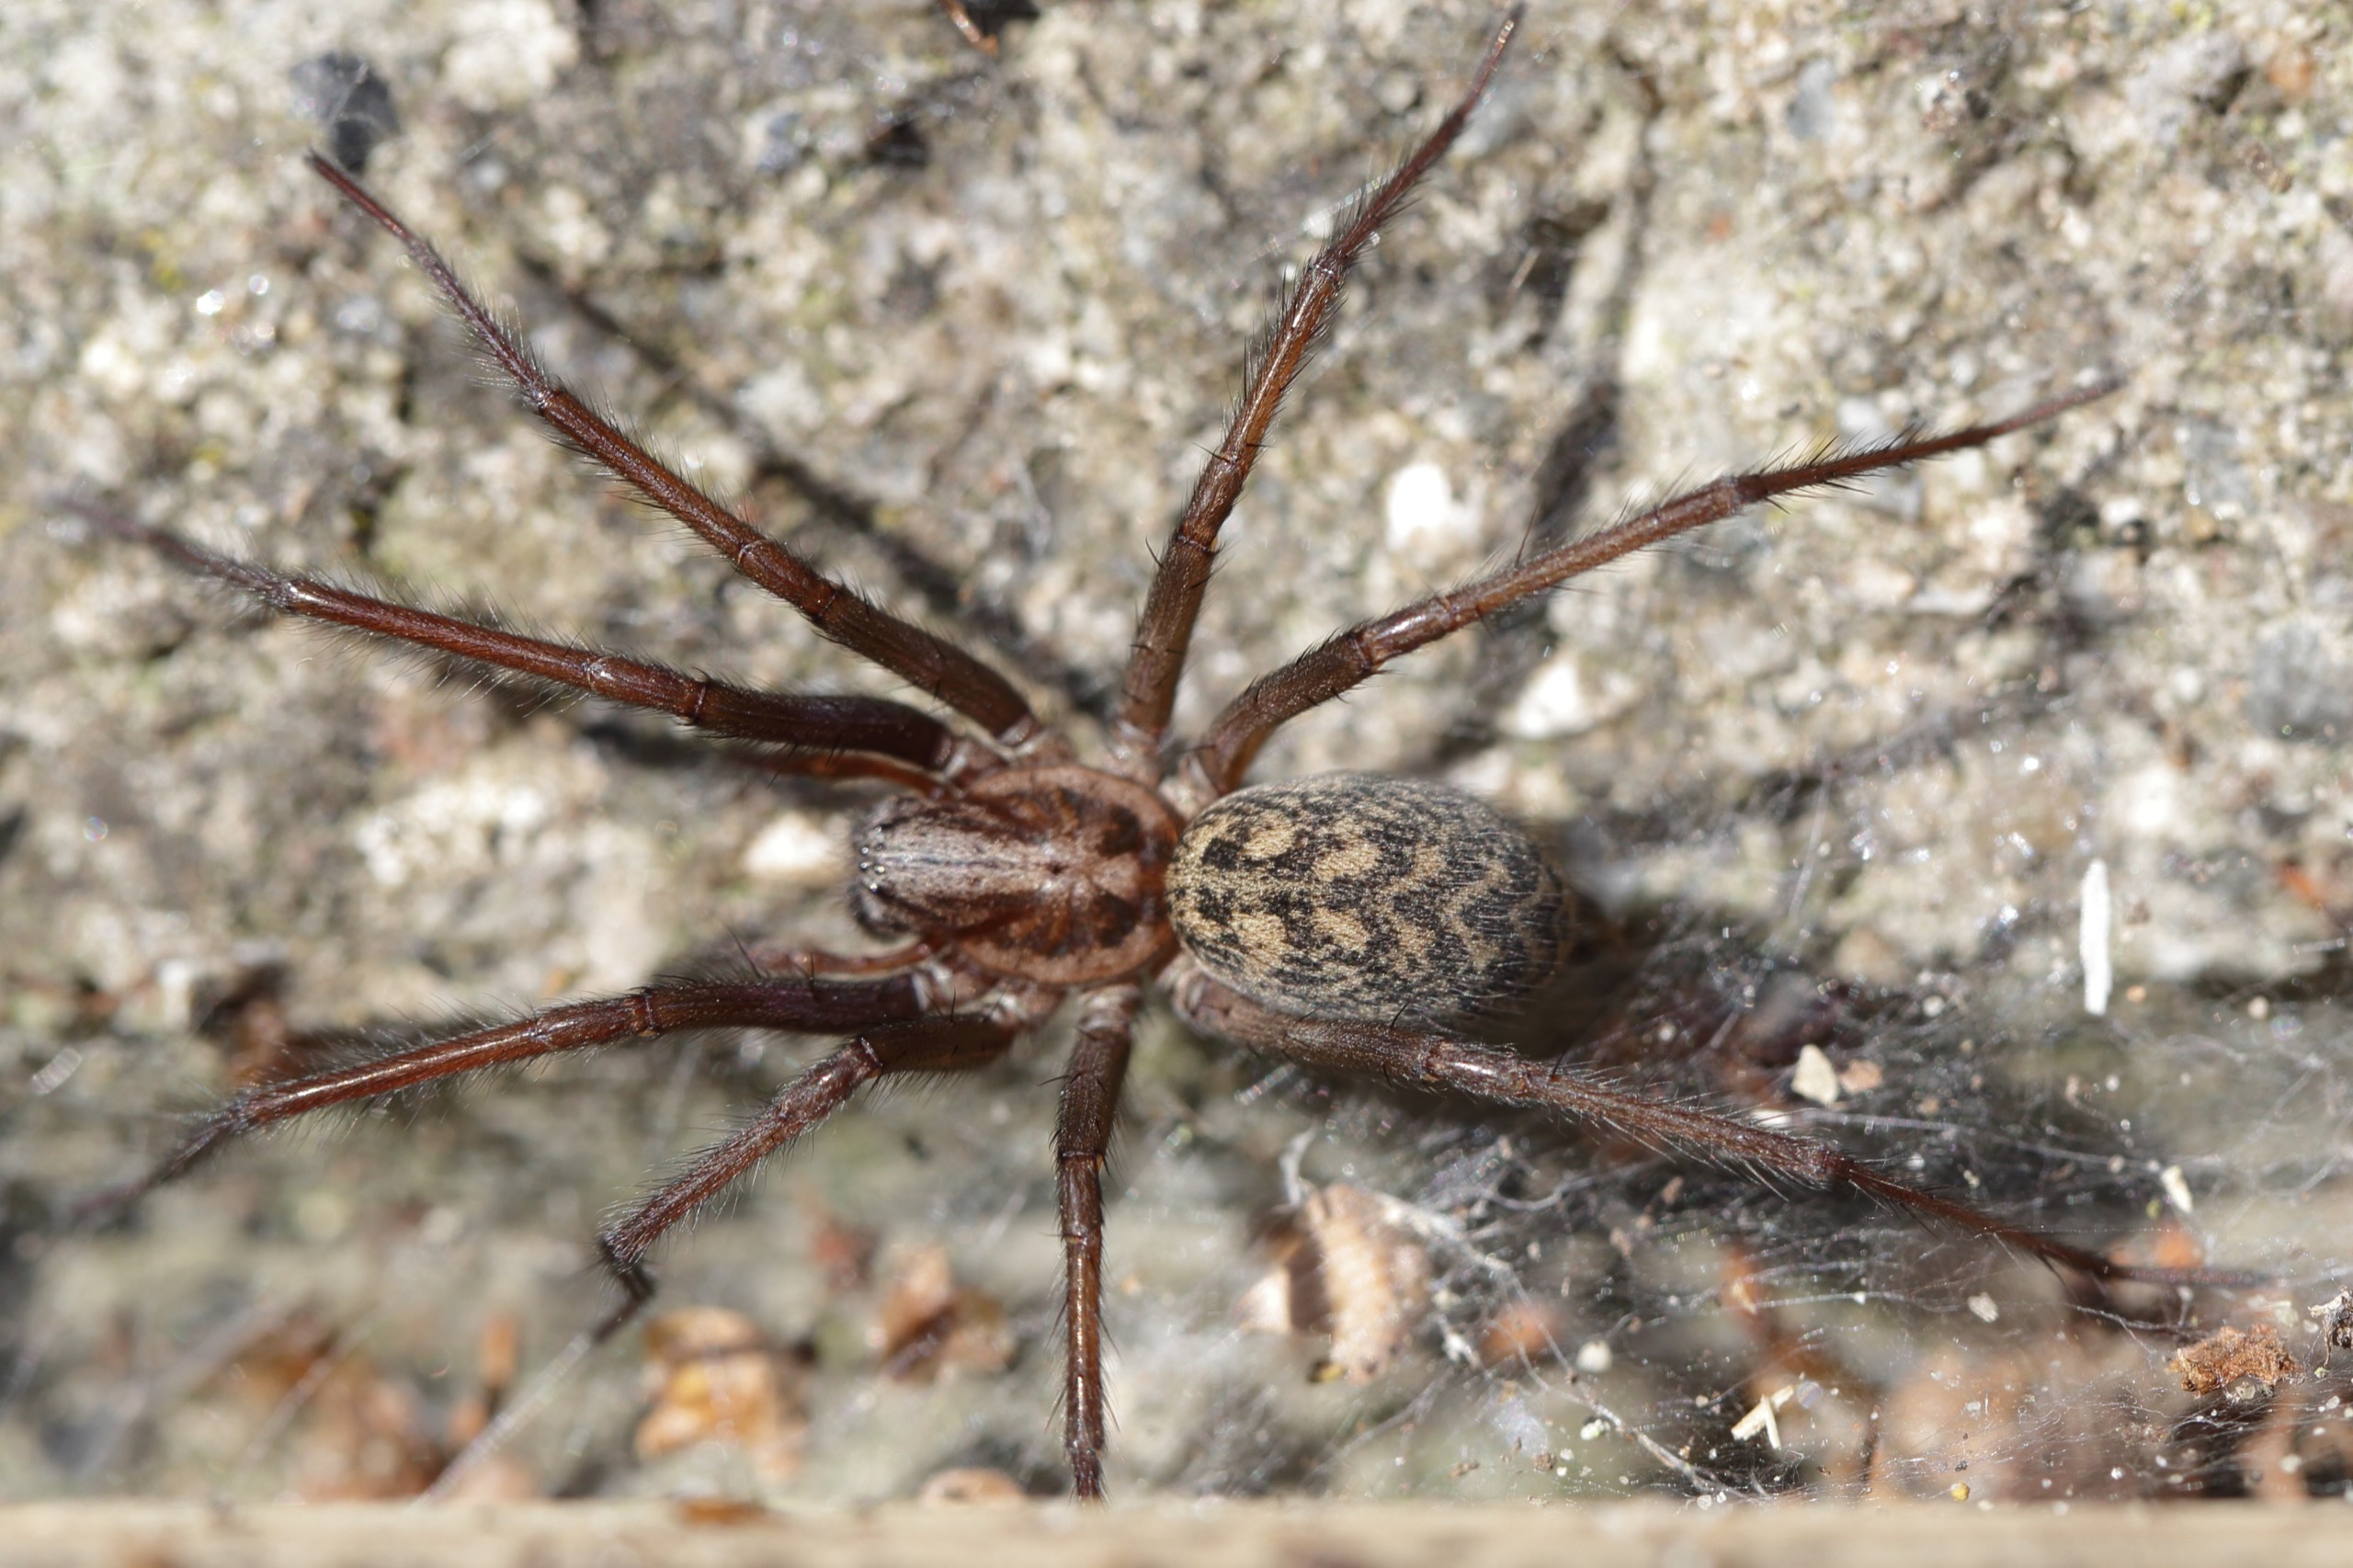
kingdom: Animalia
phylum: Arthropoda
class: Arachnida
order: Araneae
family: Agelenidae
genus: Eratigena
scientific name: Eratigena atrica
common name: Stor husedderkop
